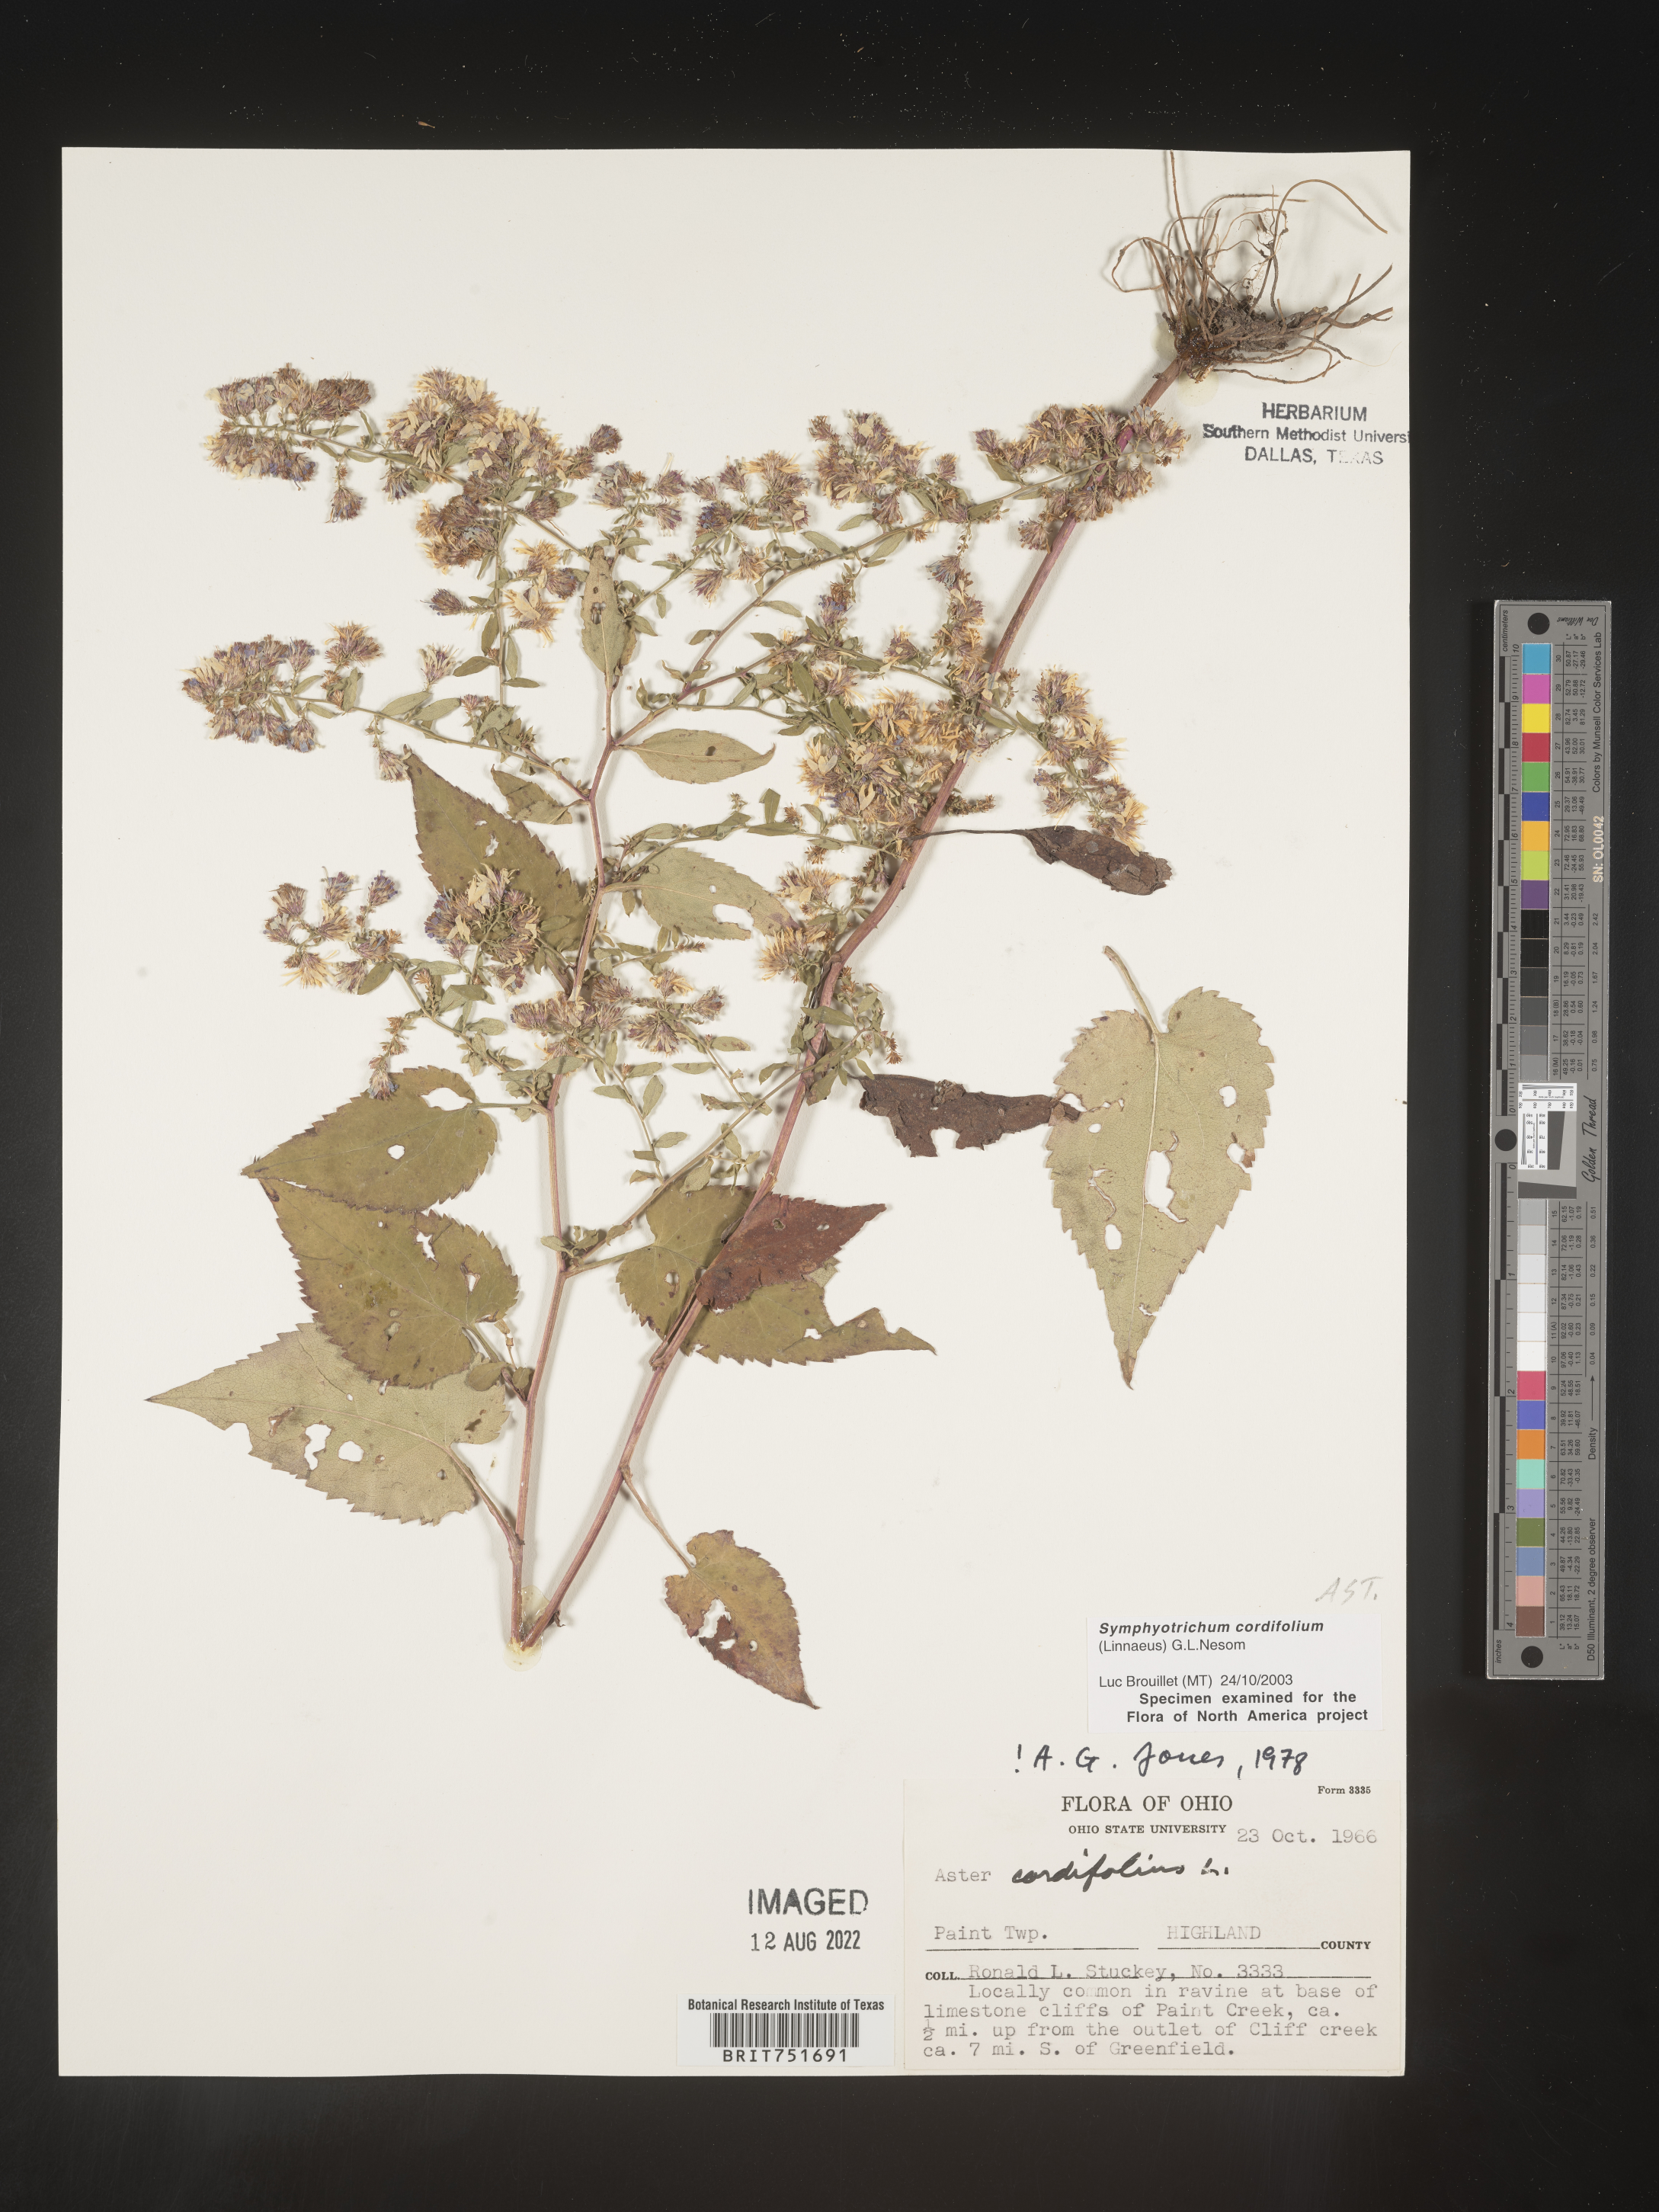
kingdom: Plantae
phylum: Tracheophyta
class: Magnoliopsida
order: Asterales
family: Asteraceae
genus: Symphyotrichum
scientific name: Symphyotrichum cordifolium
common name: Beeweed
